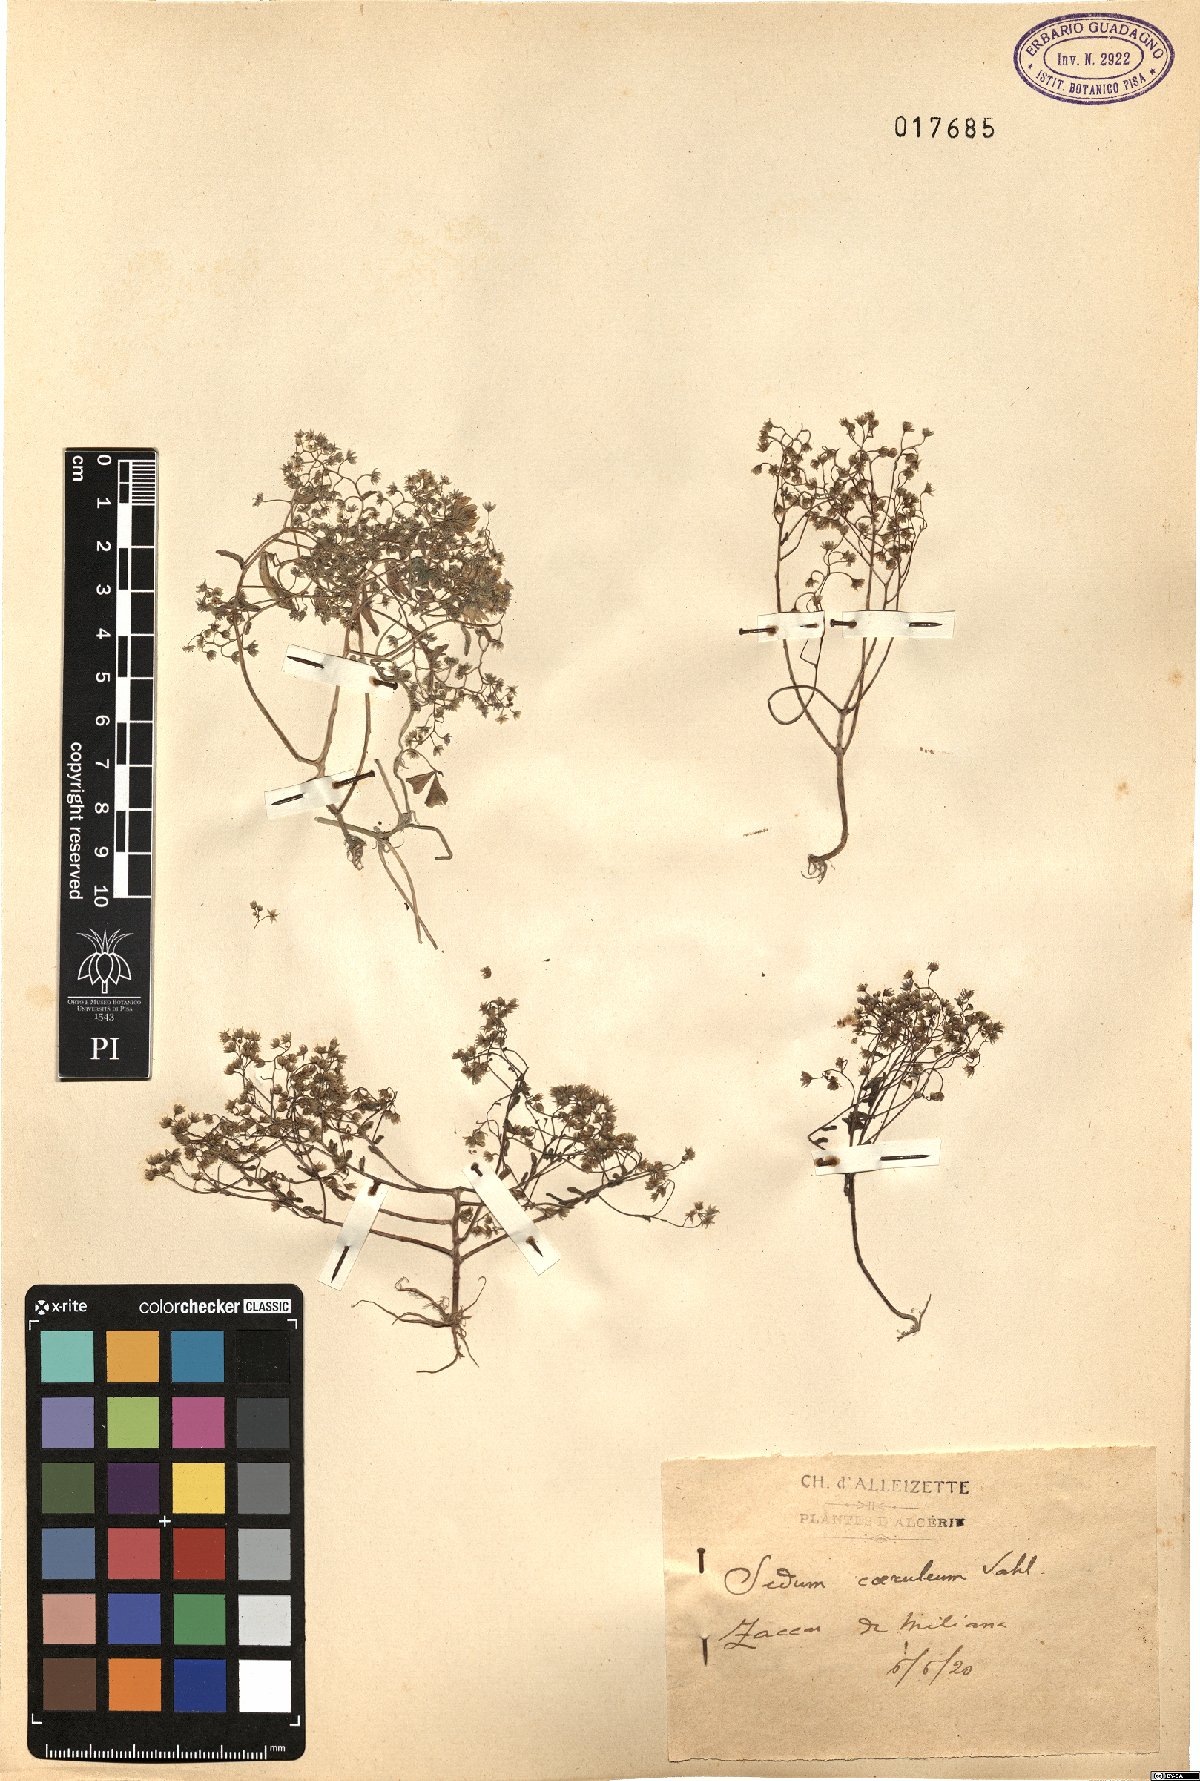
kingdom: Plantae
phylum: Tracheophyta
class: Magnoliopsida
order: Saxifragales
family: Crassulaceae
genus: Sedum
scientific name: Sedum caeruleum
